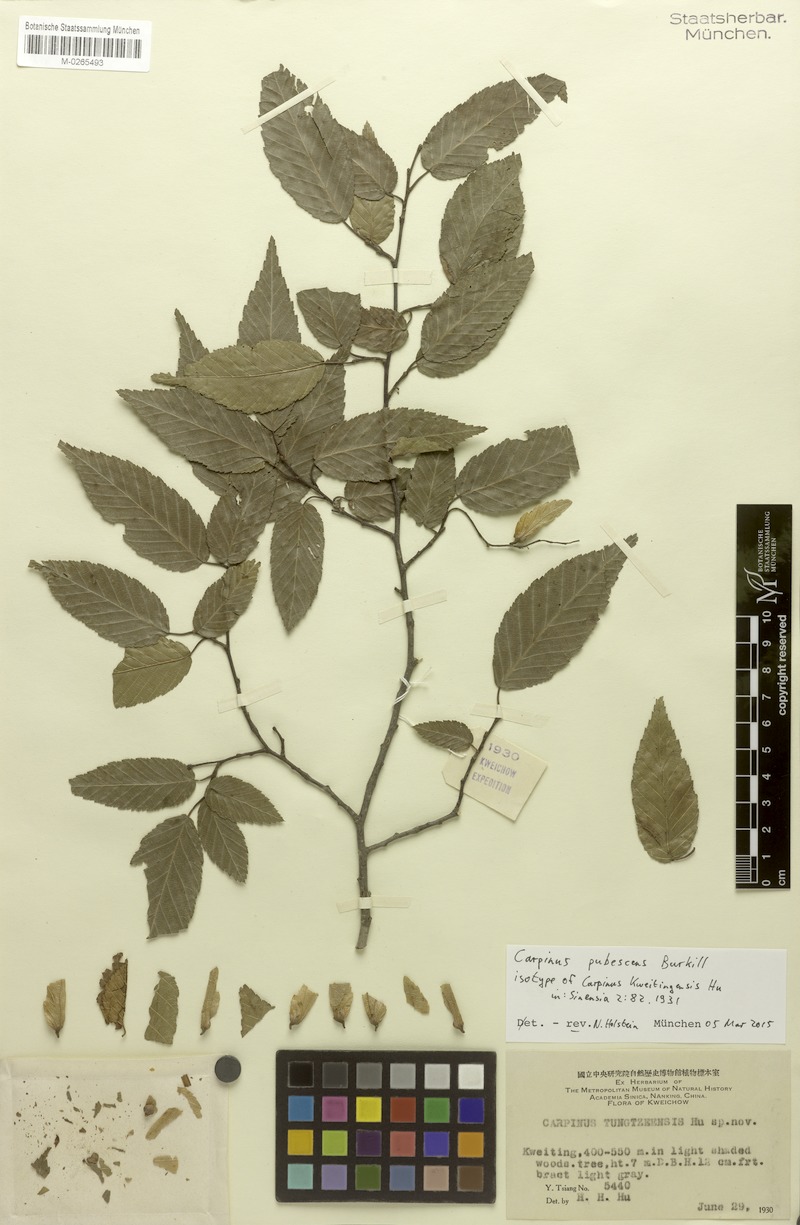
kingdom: Plantae
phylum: Tracheophyta
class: Magnoliopsida
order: Fagales
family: Betulaceae
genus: Carpinus
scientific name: Carpinus pubescens
